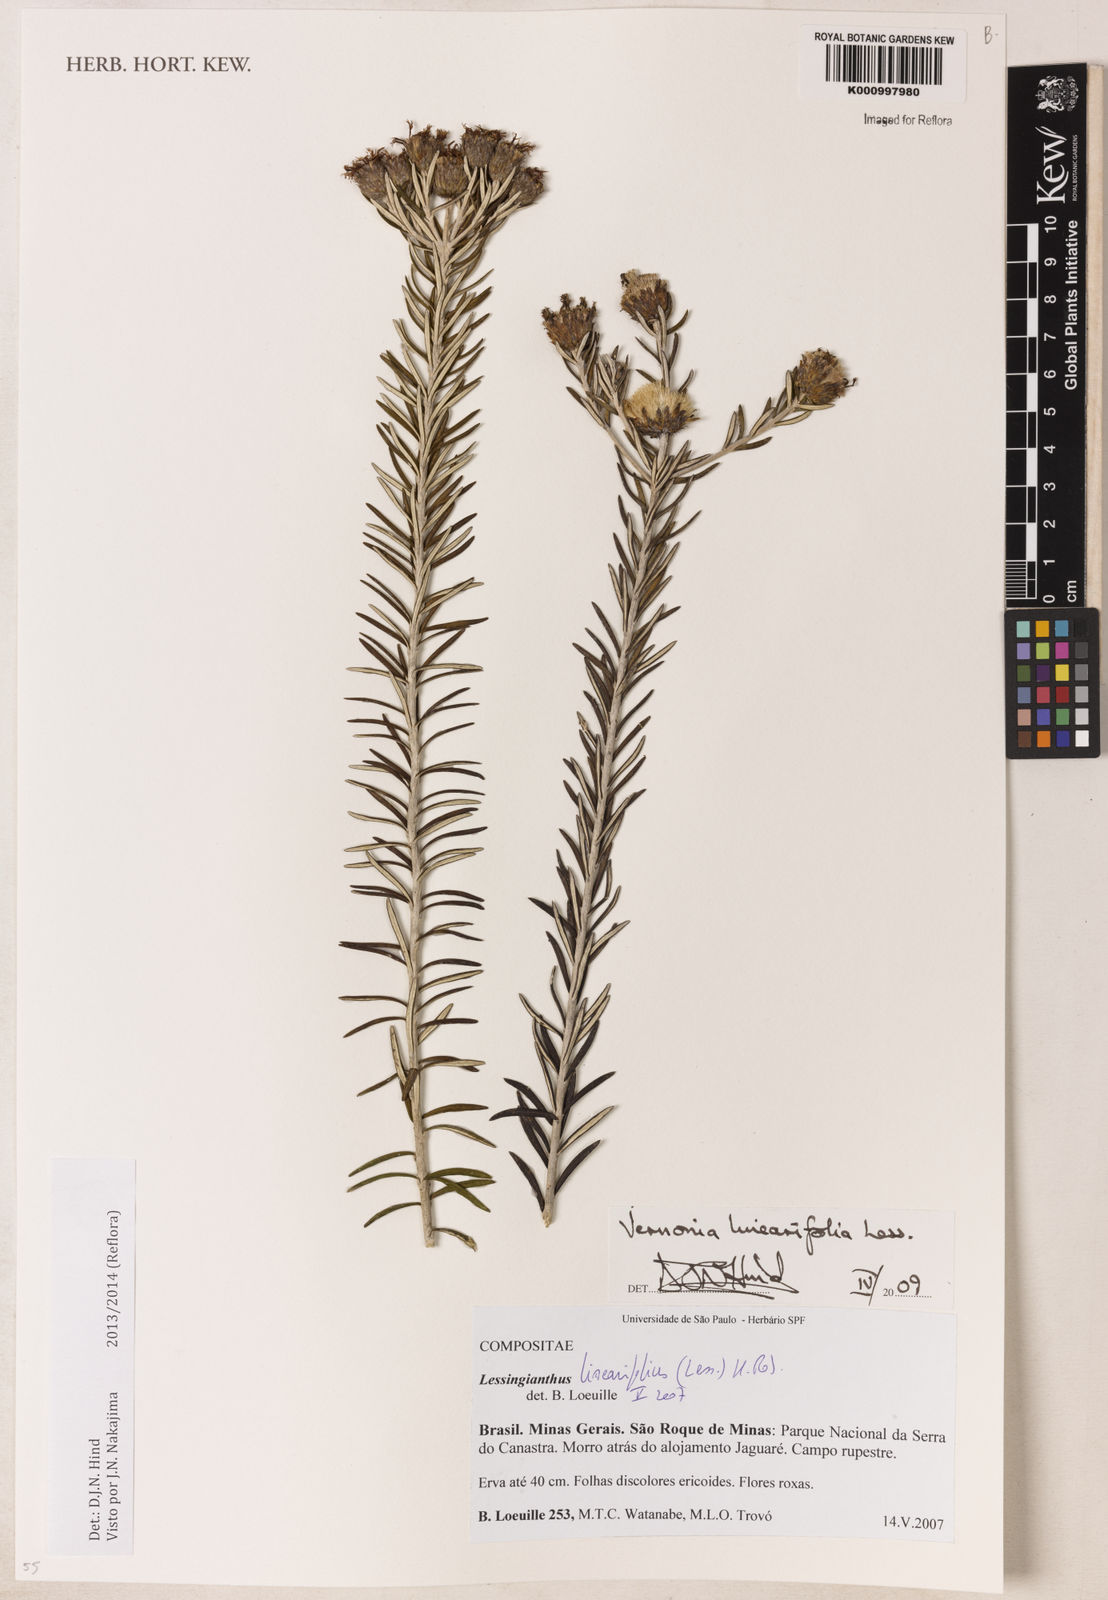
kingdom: Plantae
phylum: Tracheophyta
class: Magnoliopsida
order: Asterales
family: Asteraceae
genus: Lessingianthus
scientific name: Lessingianthus rosmarinifolius
